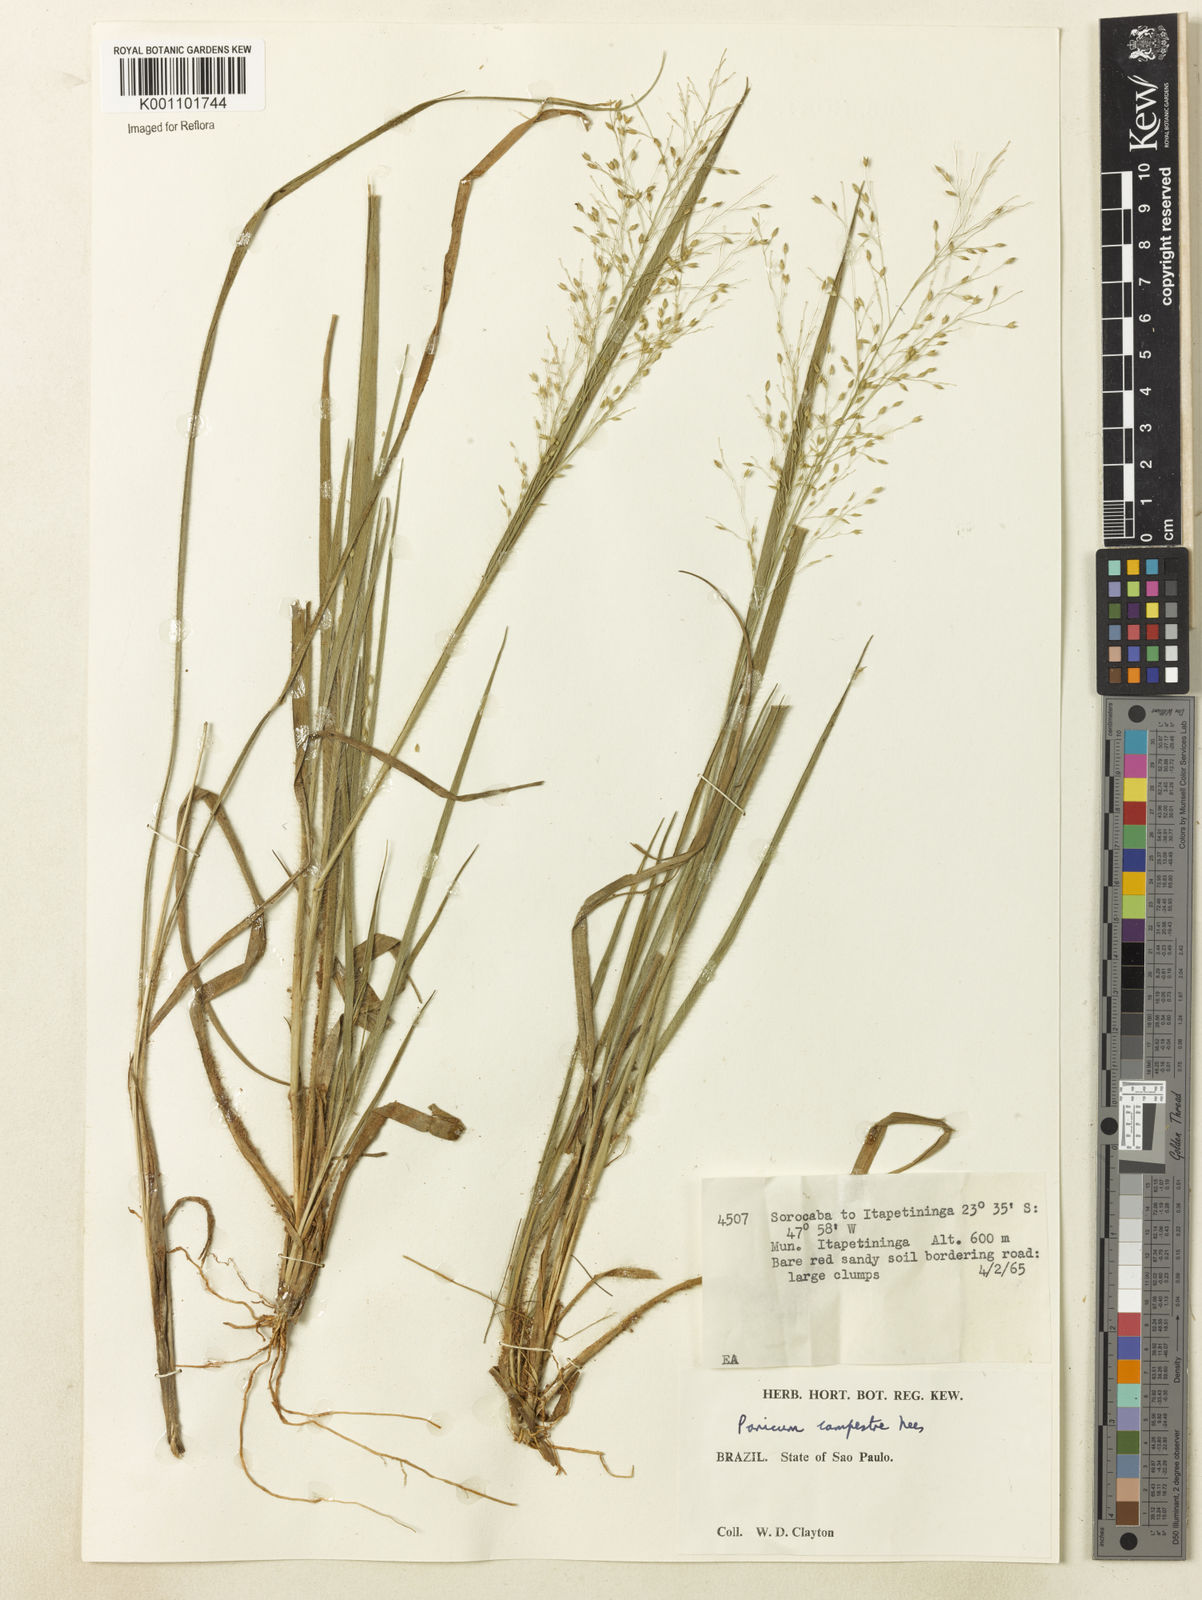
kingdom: Plantae
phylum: Tracheophyta
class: Liliopsida
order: Poales
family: Poaceae
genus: Panicum
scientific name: Panicum peladoense
